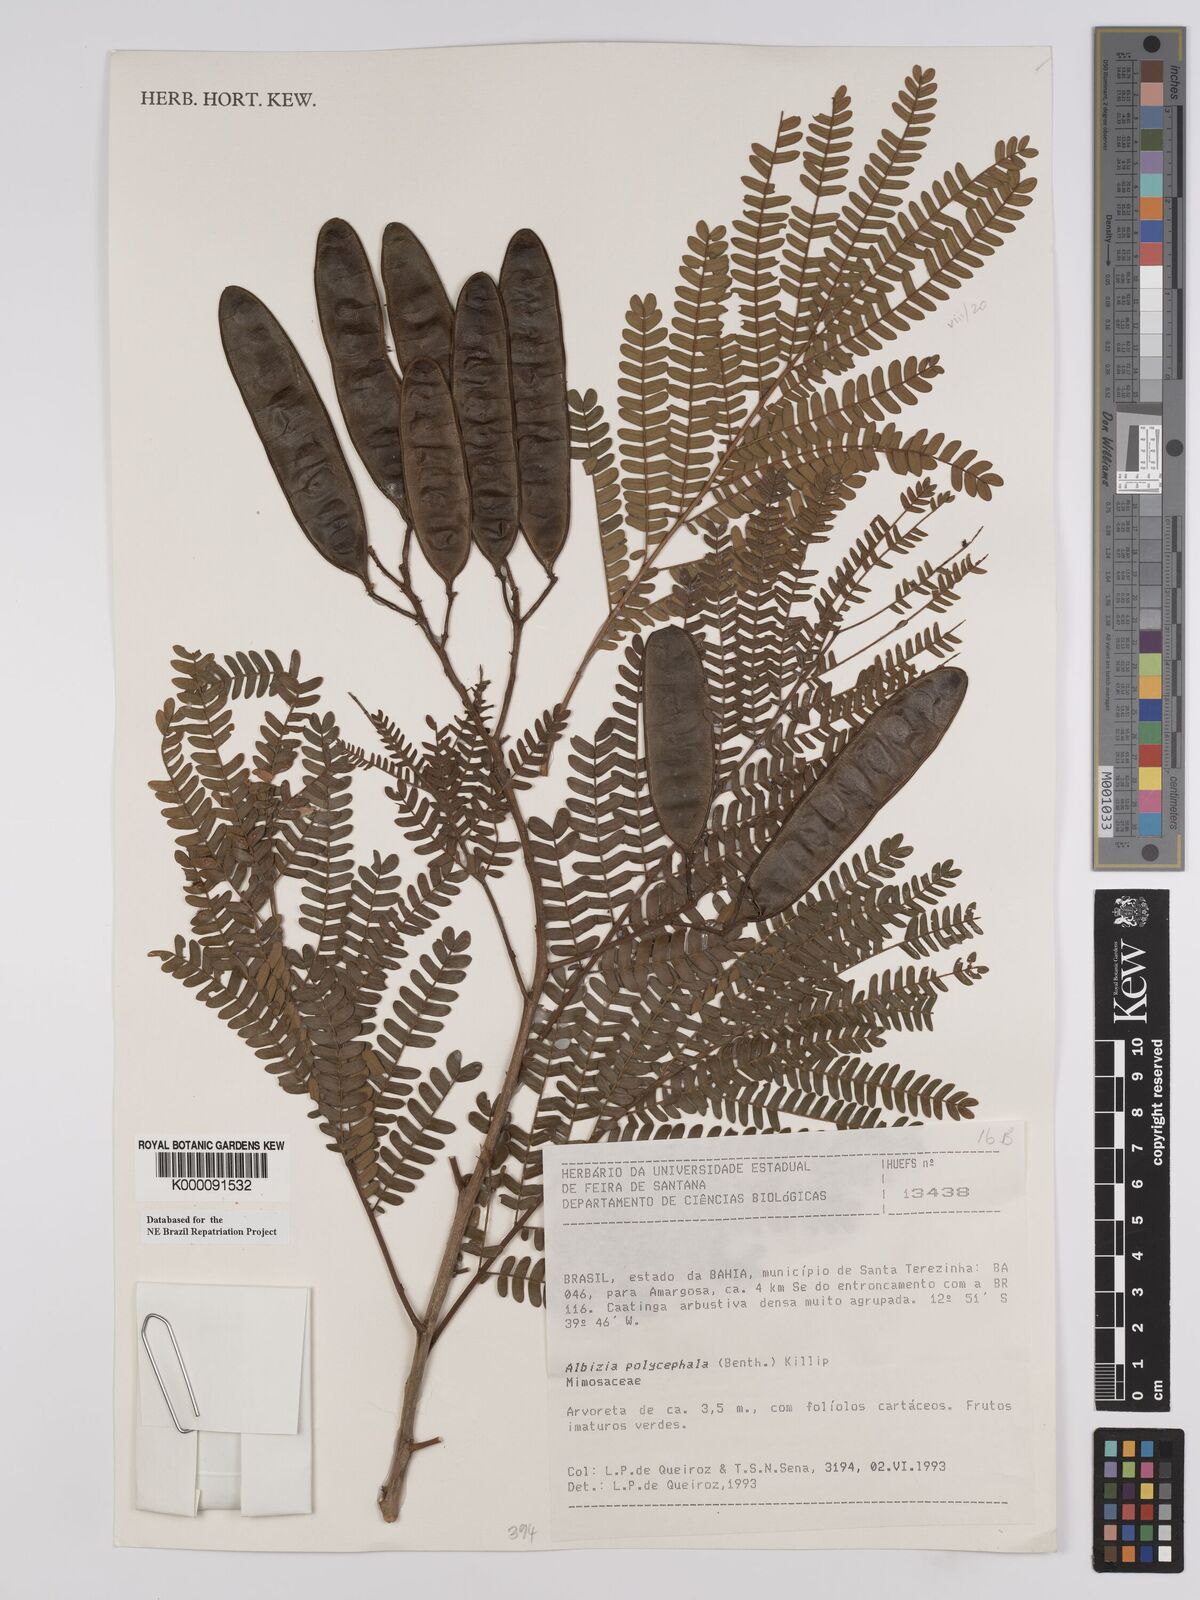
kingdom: Plantae
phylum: Tracheophyta
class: Magnoliopsida
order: Fabales
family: Fabaceae
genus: Albizia
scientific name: Albizia polycephala
